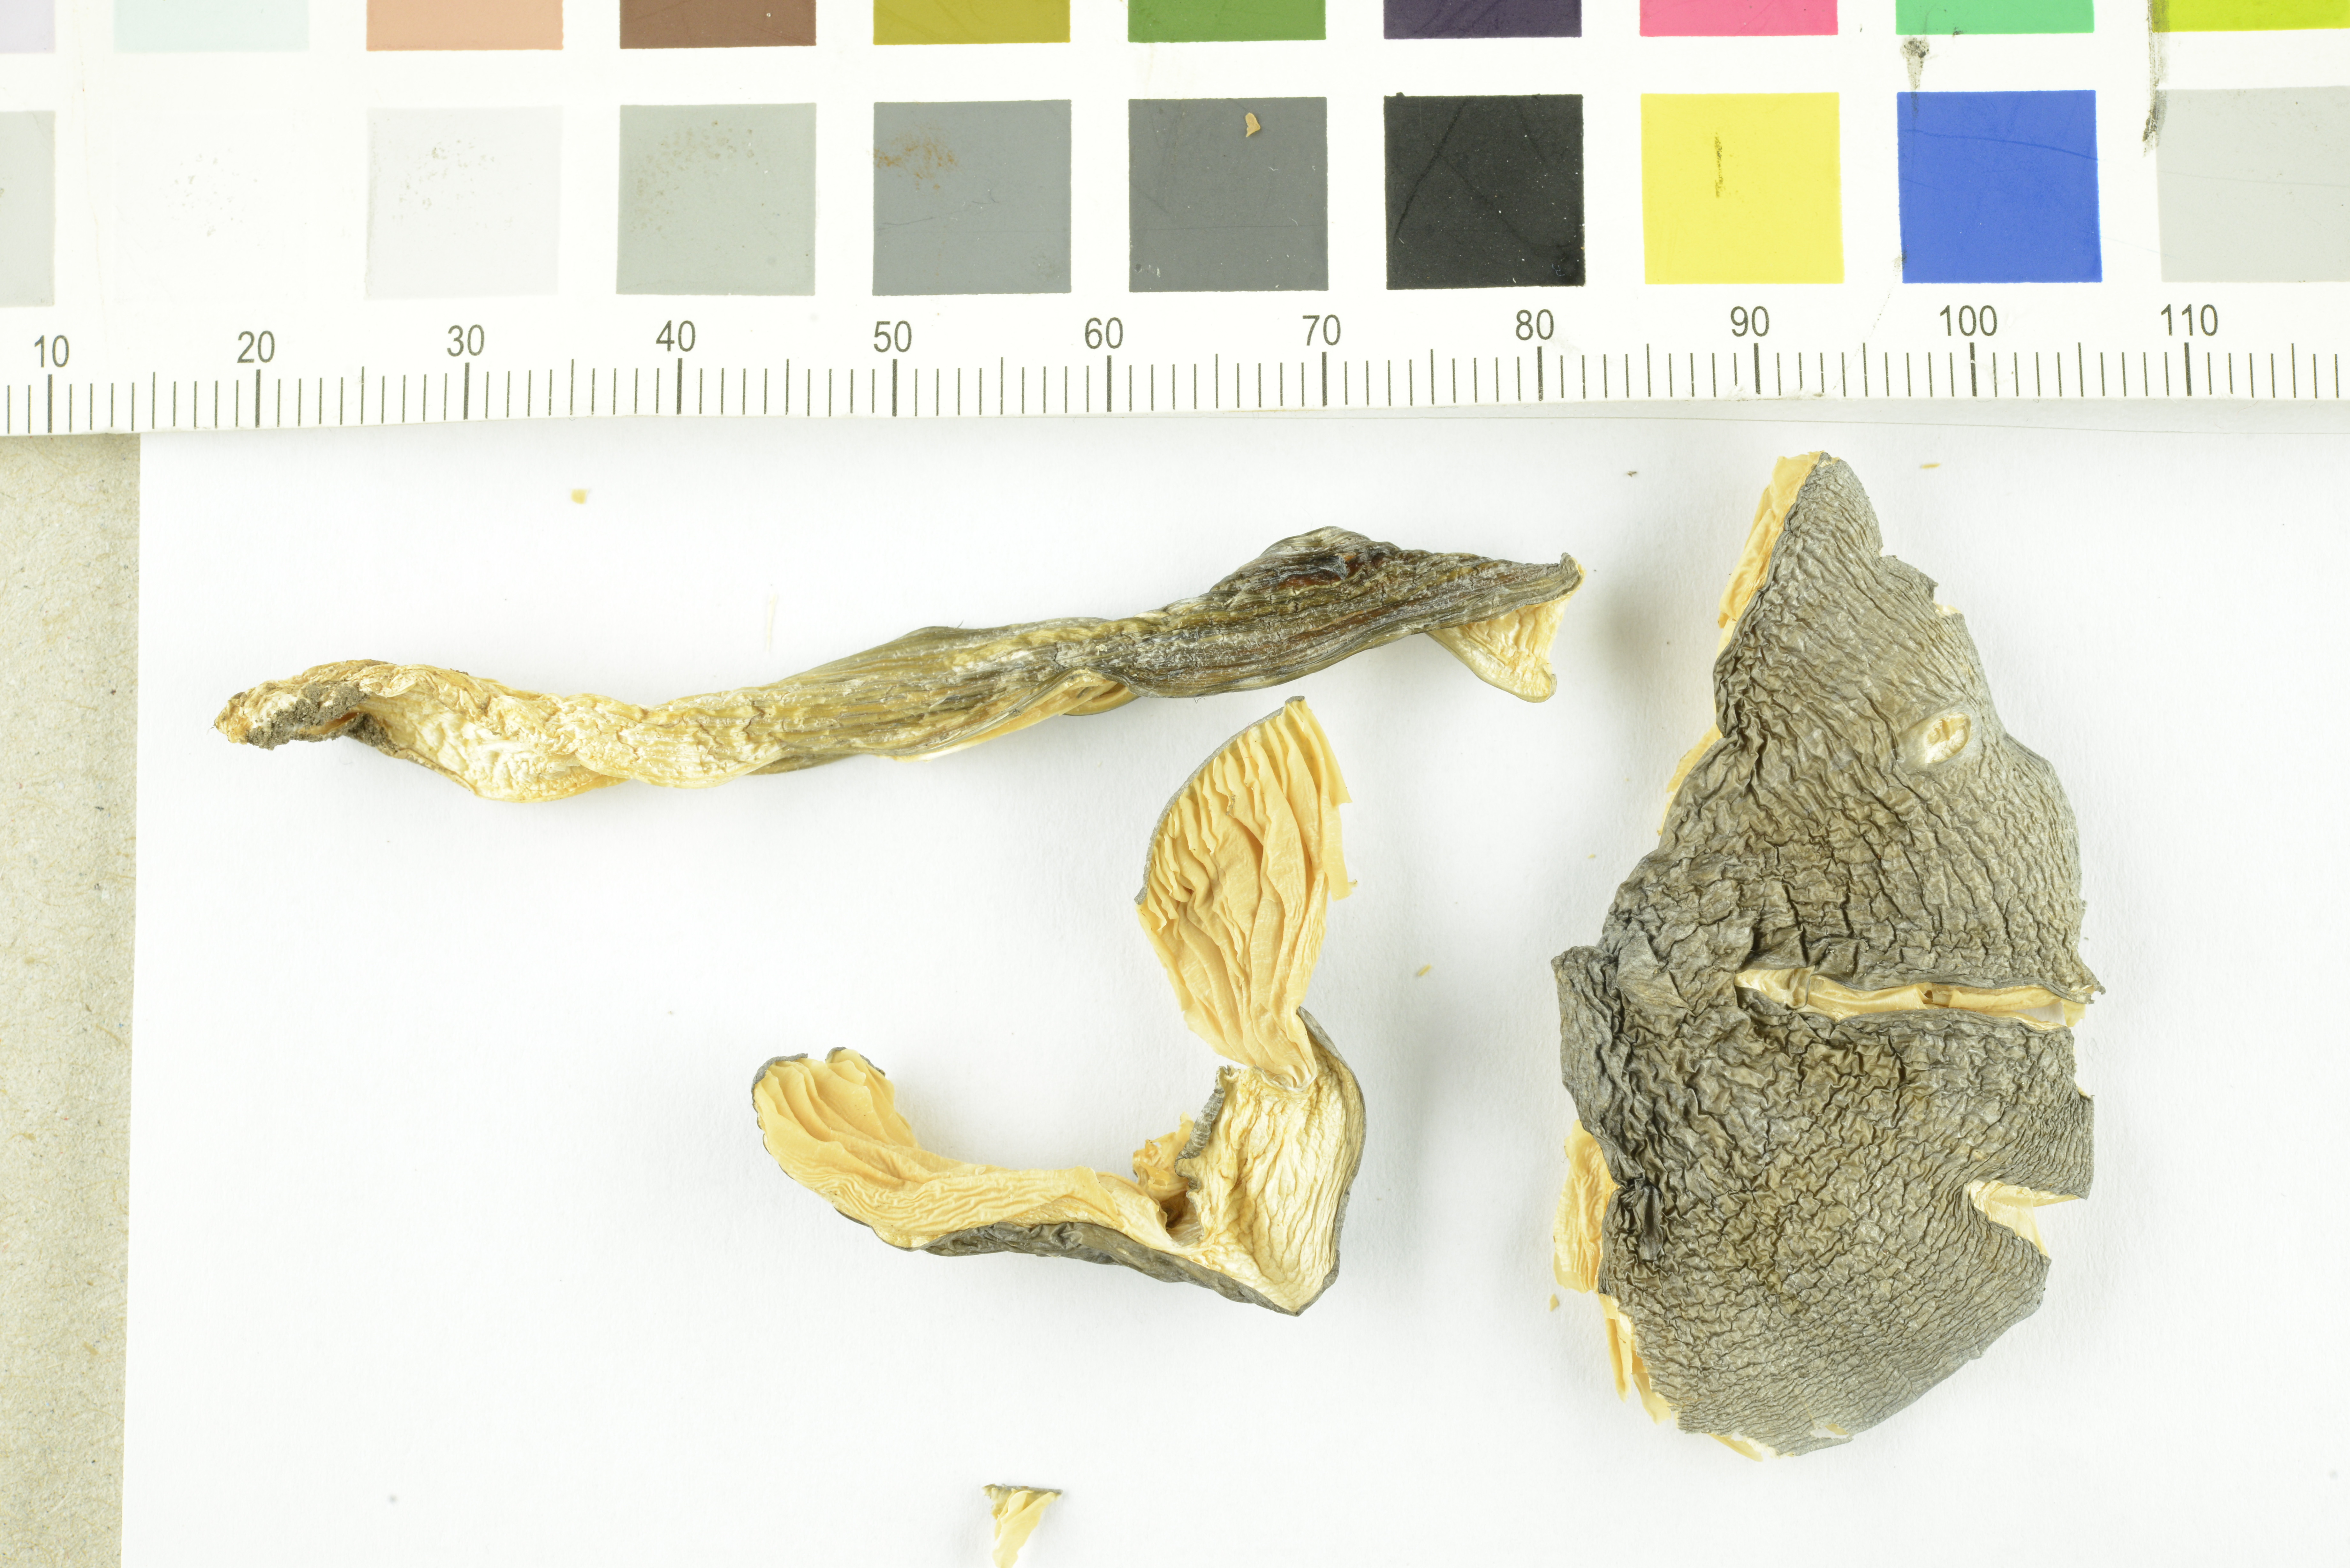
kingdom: Fungi
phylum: Basidiomycota
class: Agaricomycetes
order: Agaricales
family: Entolomataceae
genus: Entoloma
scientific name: Entoloma madidum
